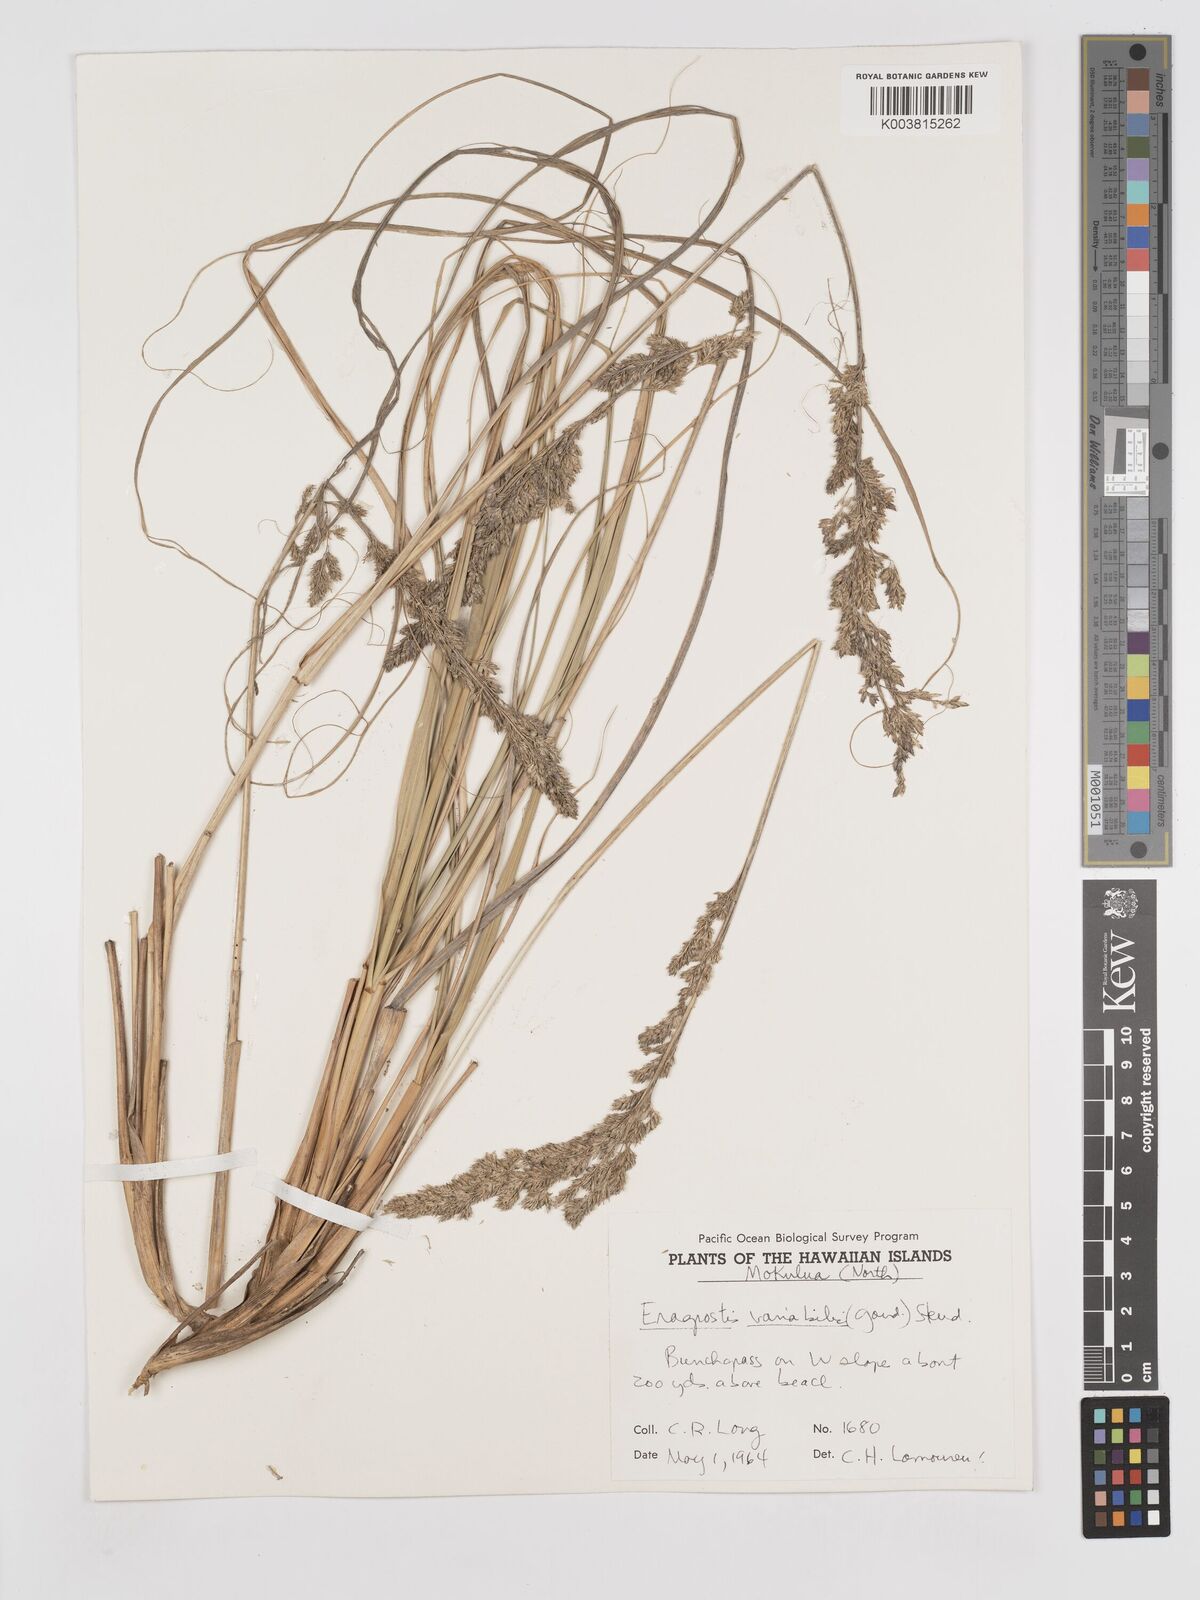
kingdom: Plantae
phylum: Tracheophyta
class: Liliopsida
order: Poales
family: Poaceae
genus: Eragrostis
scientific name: Eragrostis variabilis
